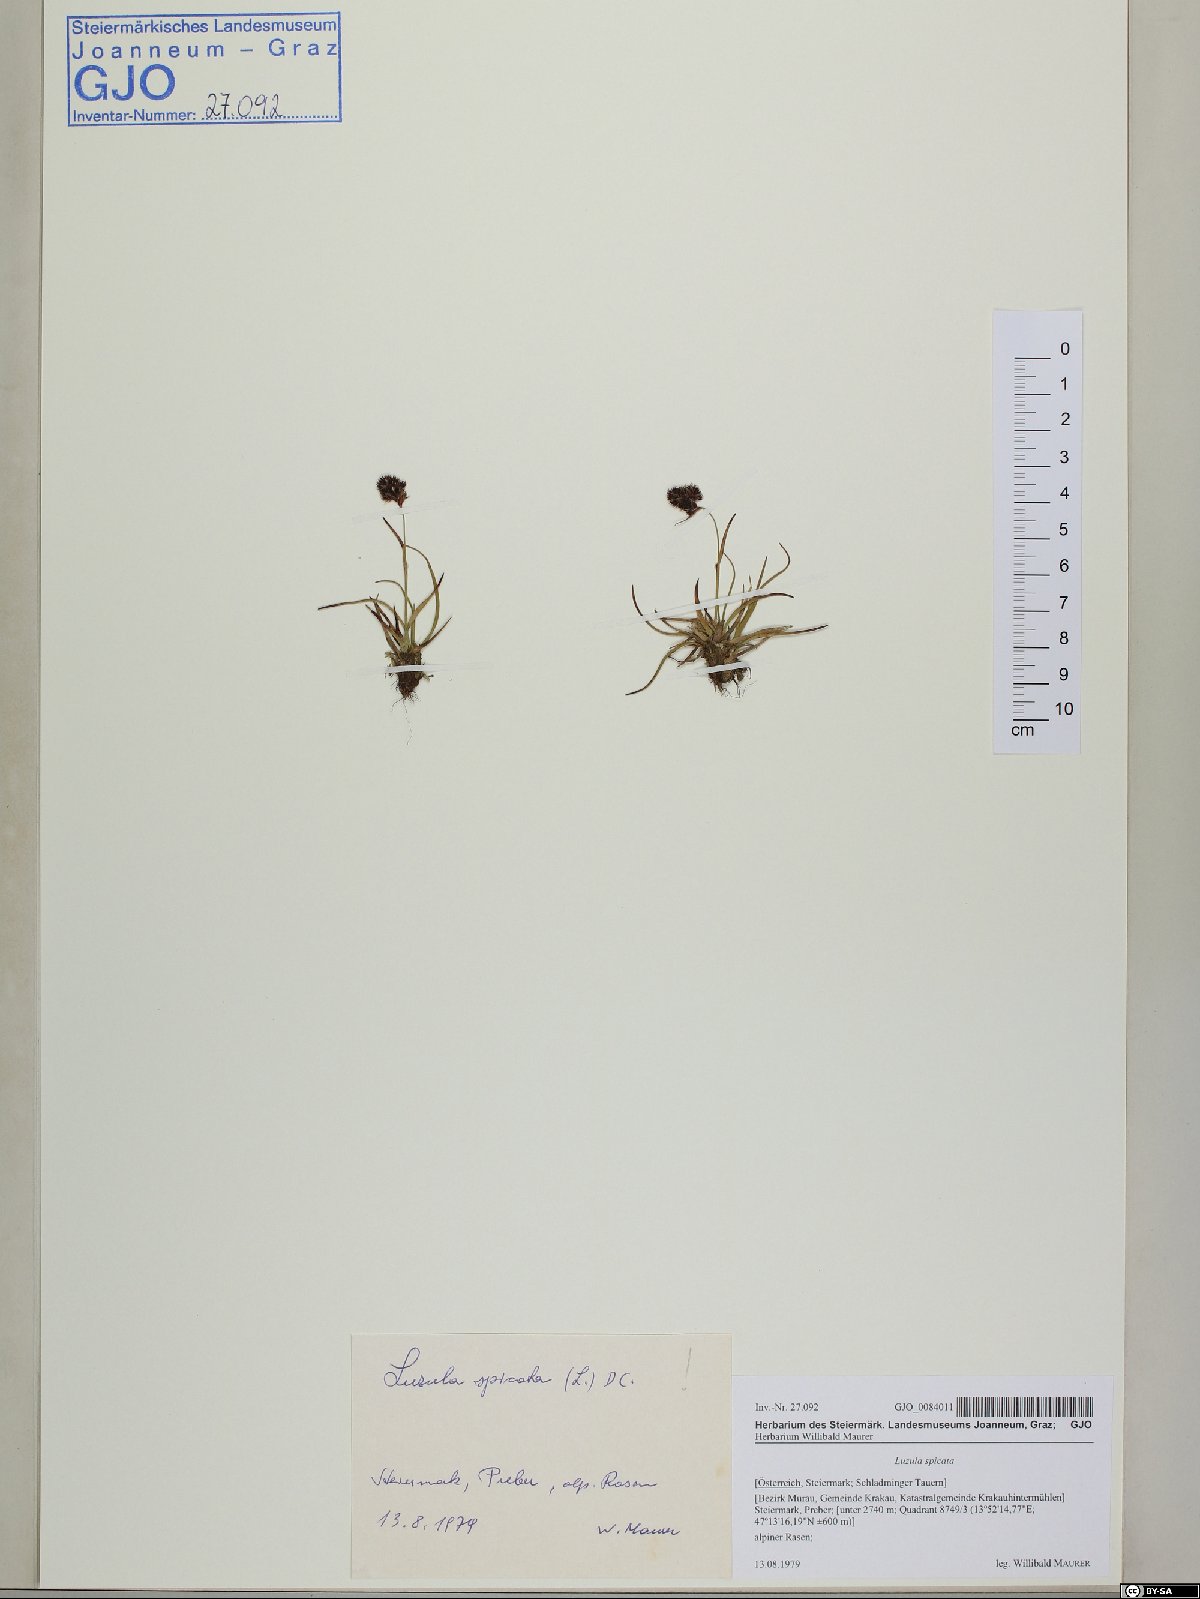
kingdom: Plantae
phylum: Tracheophyta
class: Liliopsida
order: Poales
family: Juncaceae
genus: Luzula
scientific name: Luzula spicata
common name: Spiked wood-rush
